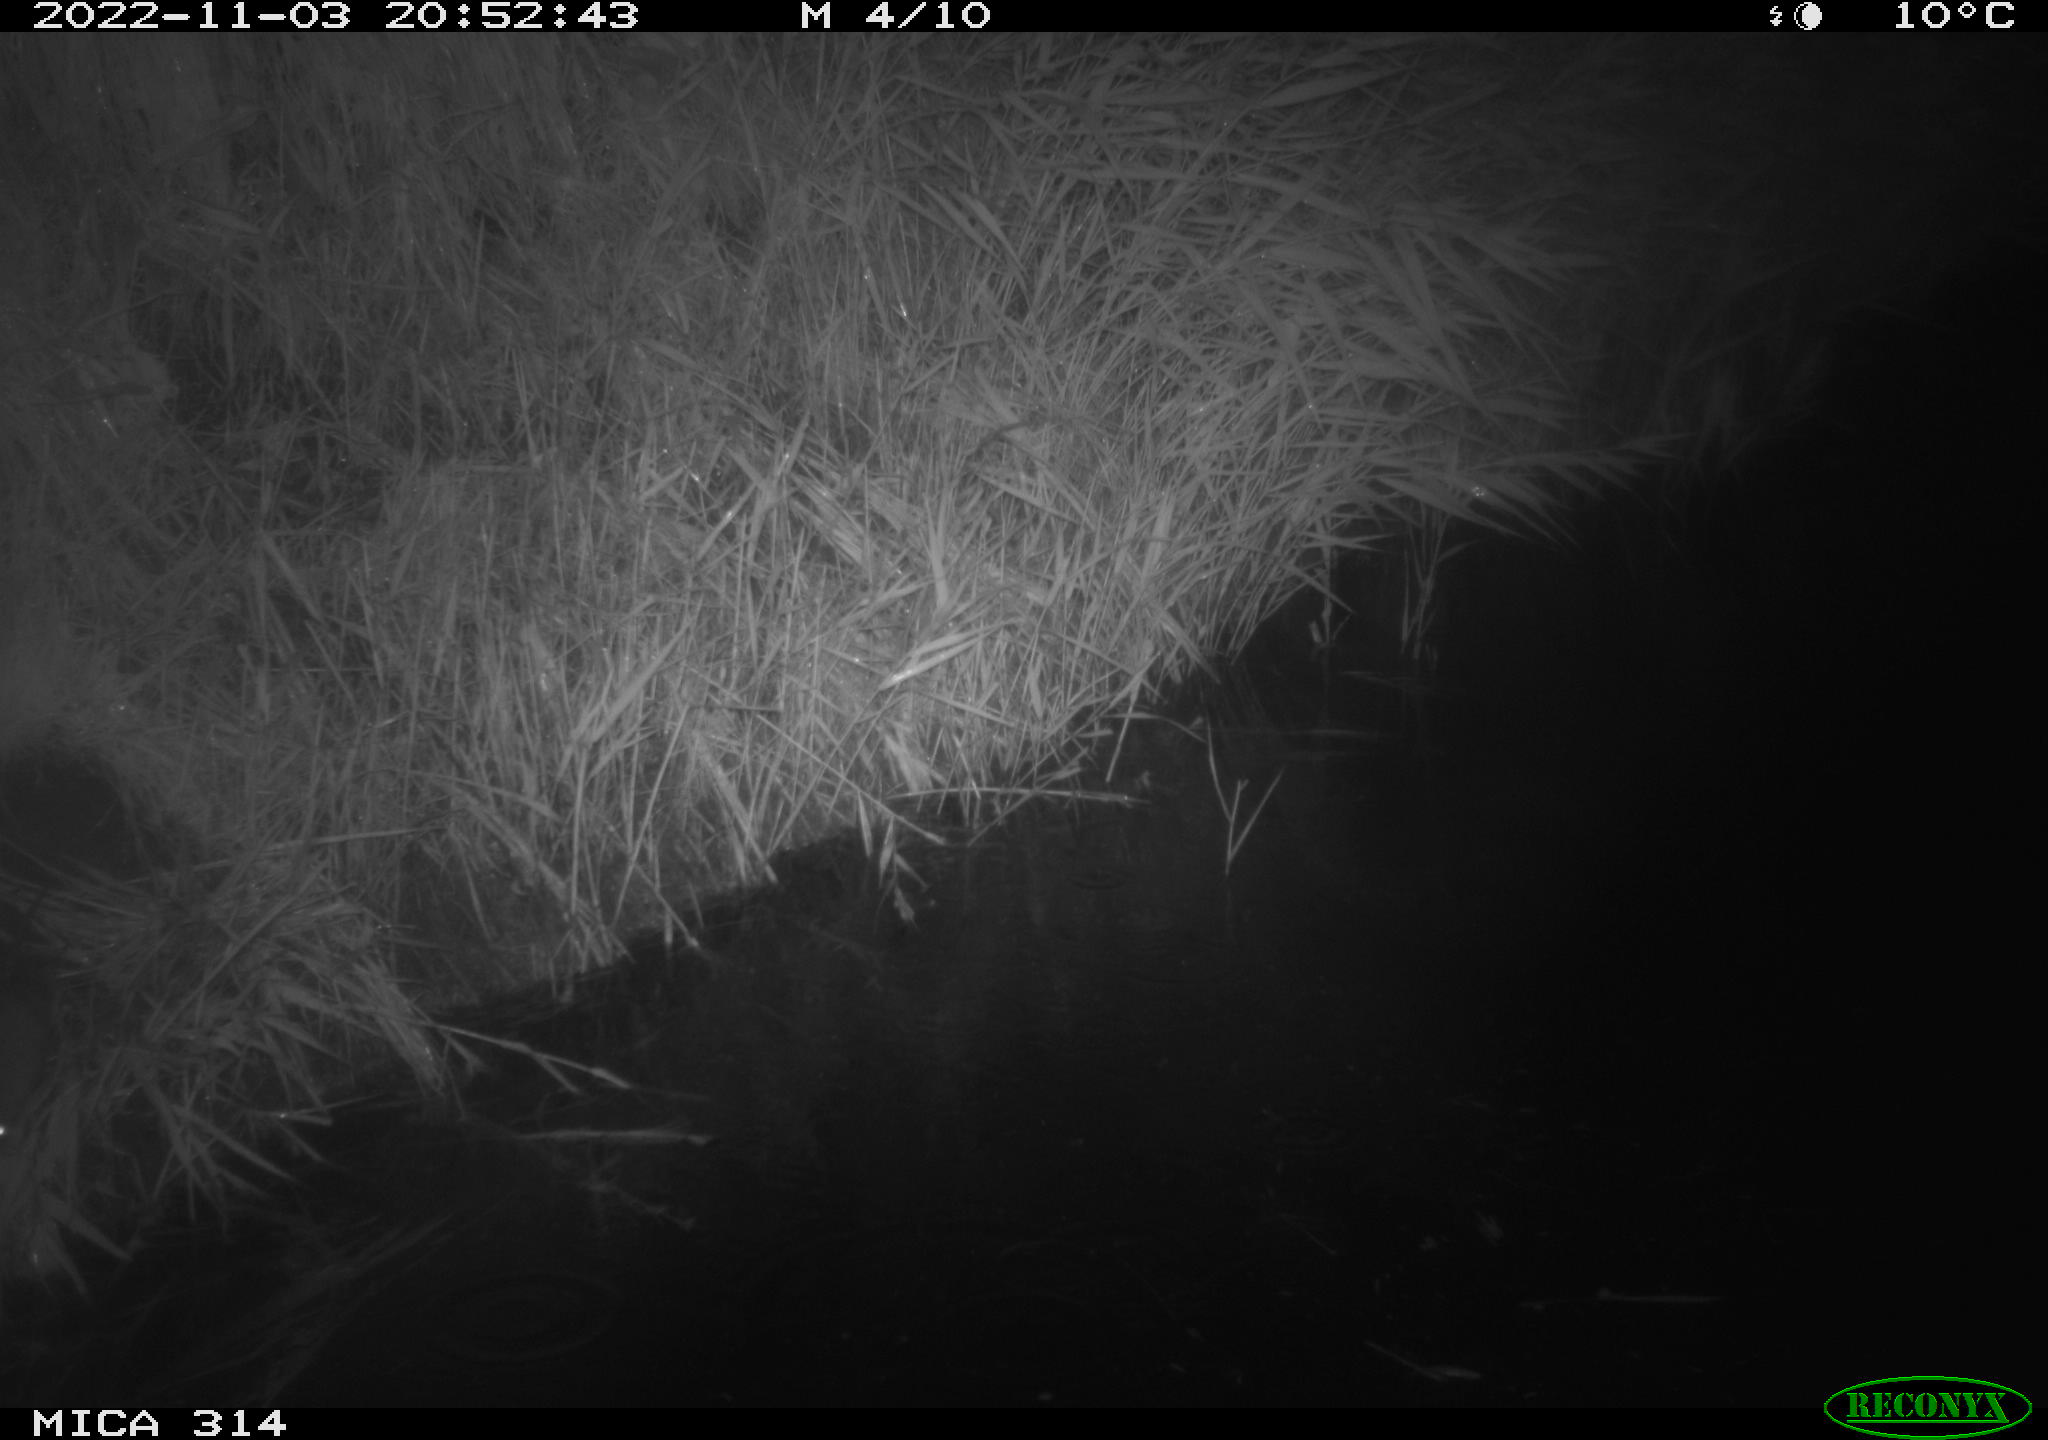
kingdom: Animalia
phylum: Chordata
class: Mammalia
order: Rodentia
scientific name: Rodentia
